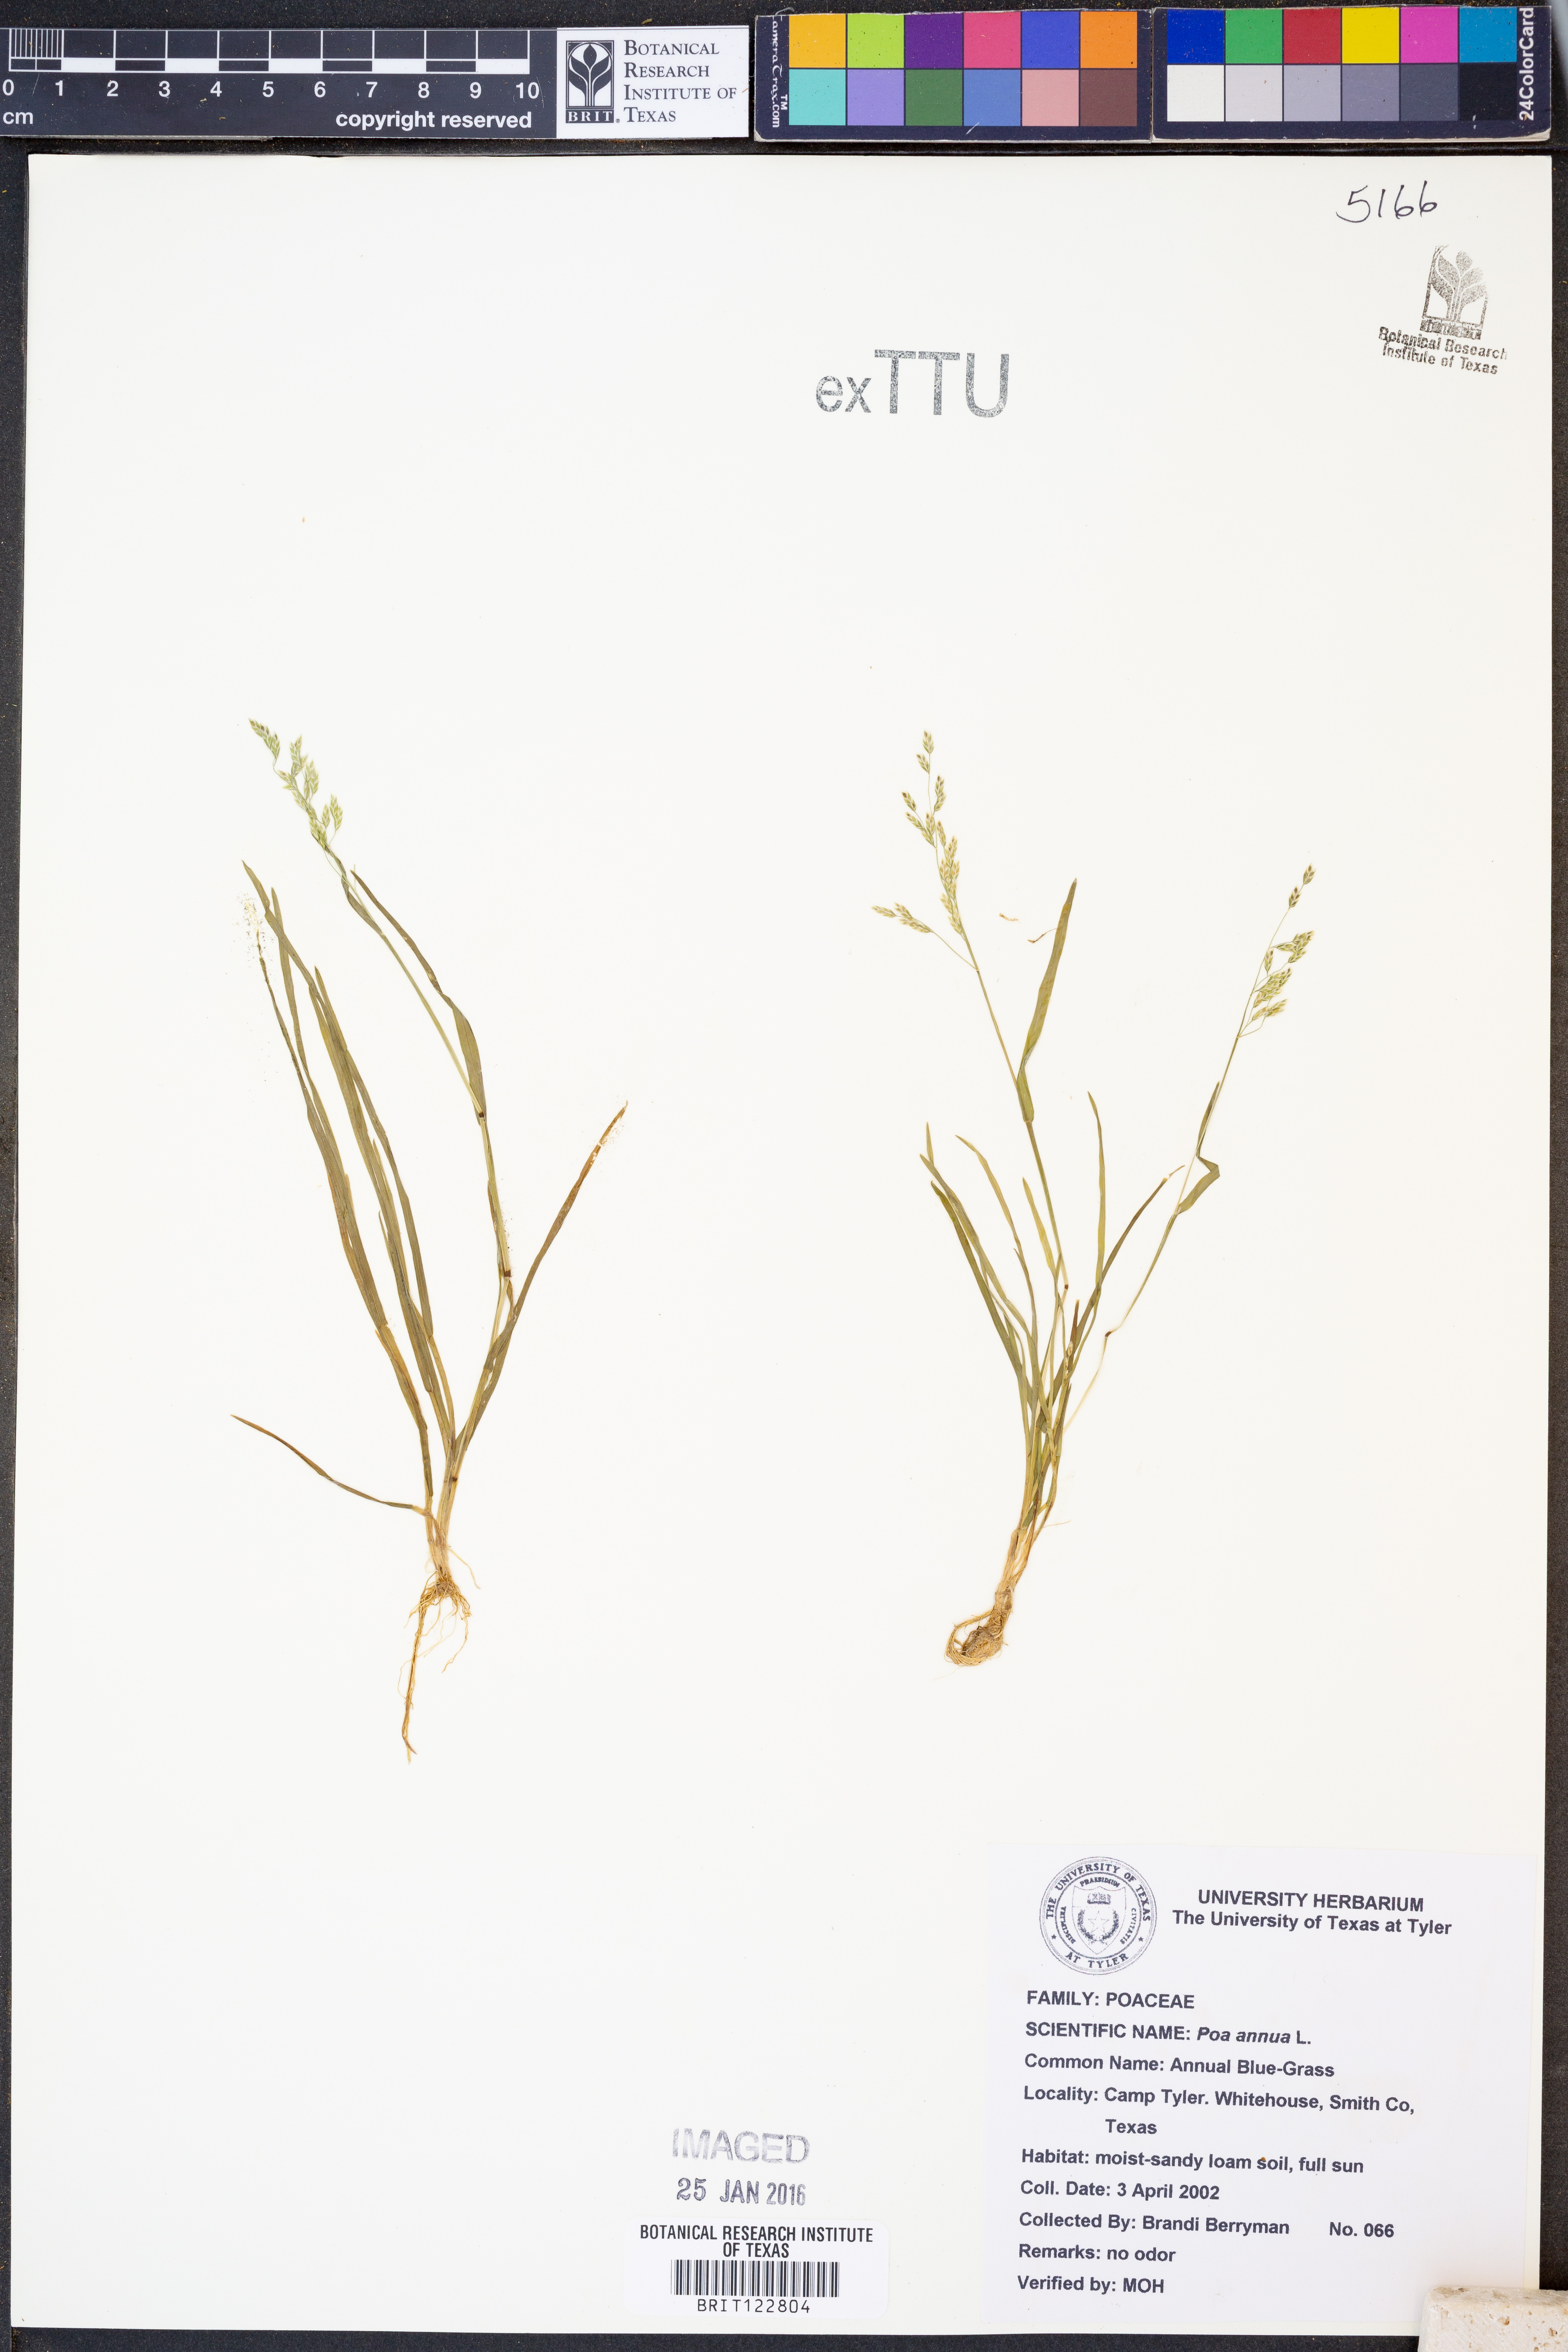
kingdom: Plantae
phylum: Tracheophyta
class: Liliopsida
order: Poales
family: Poaceae
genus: Poa
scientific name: Poa annua
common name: Annual bluegrass
